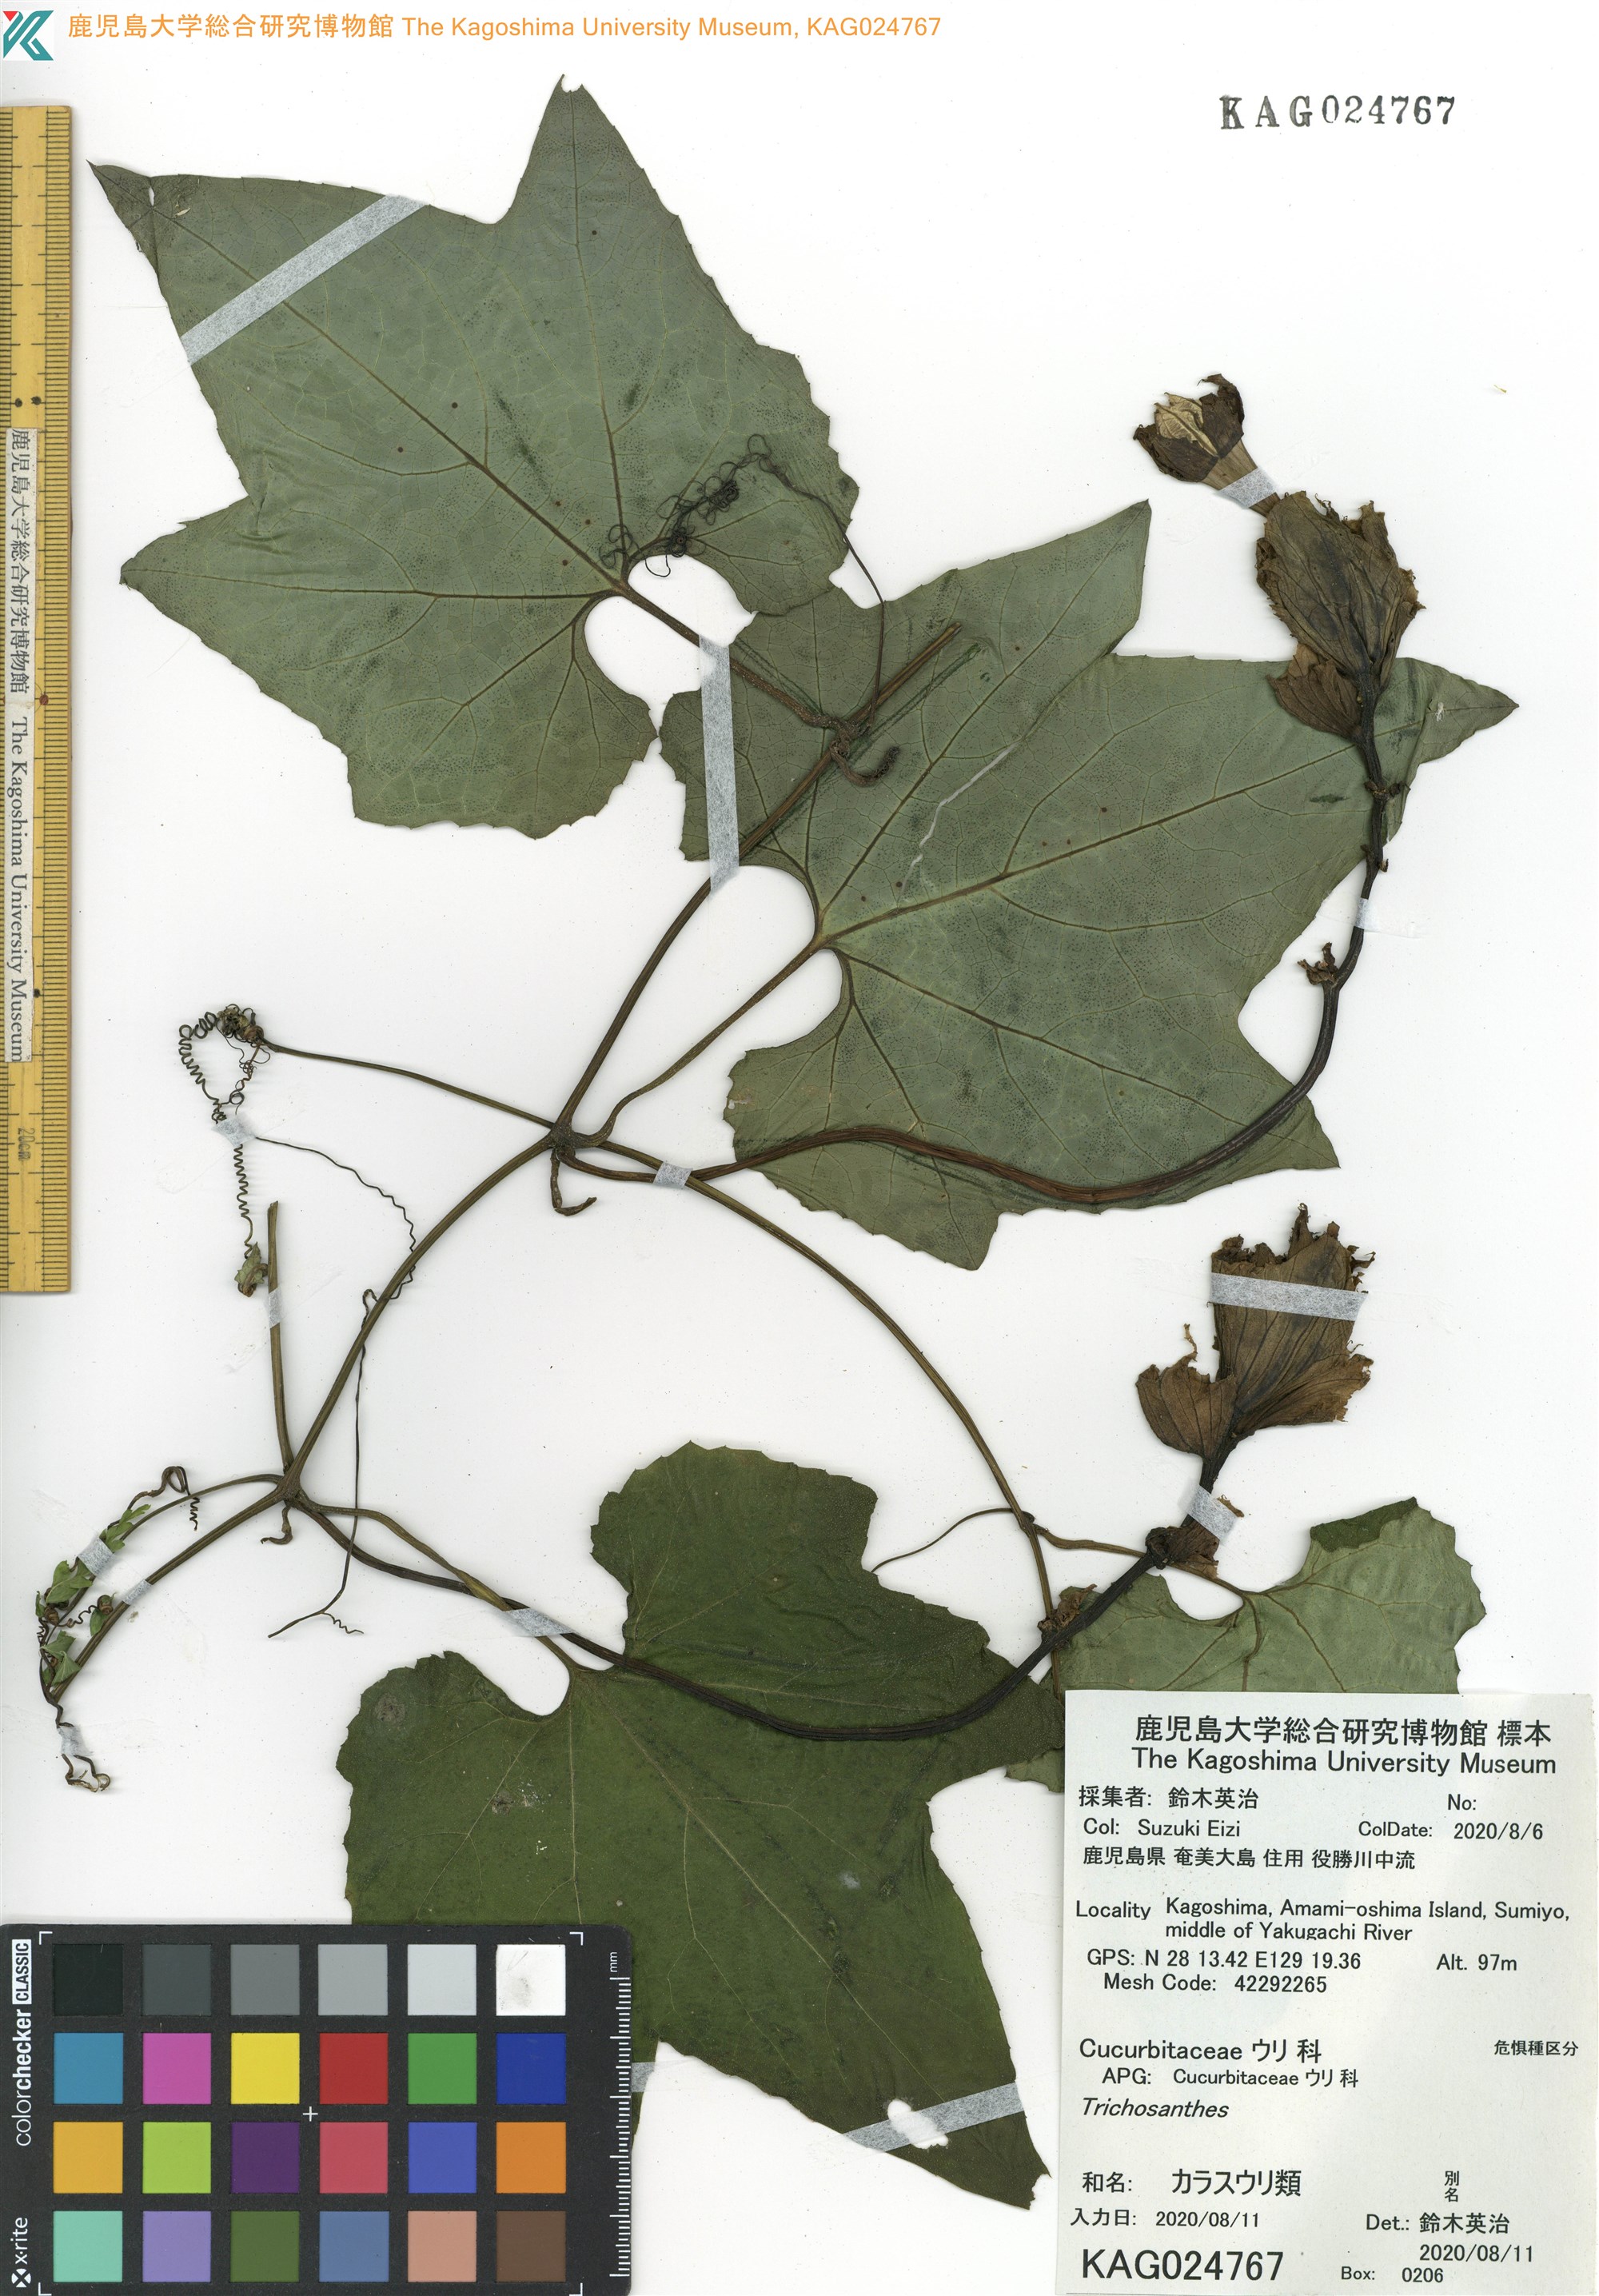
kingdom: Plantae
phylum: Tracheophyta
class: Magnoliopsida
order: Cucurbitales
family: Cucurbitaceae
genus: Trichosanthes
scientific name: Trichosanthes laceribractea
